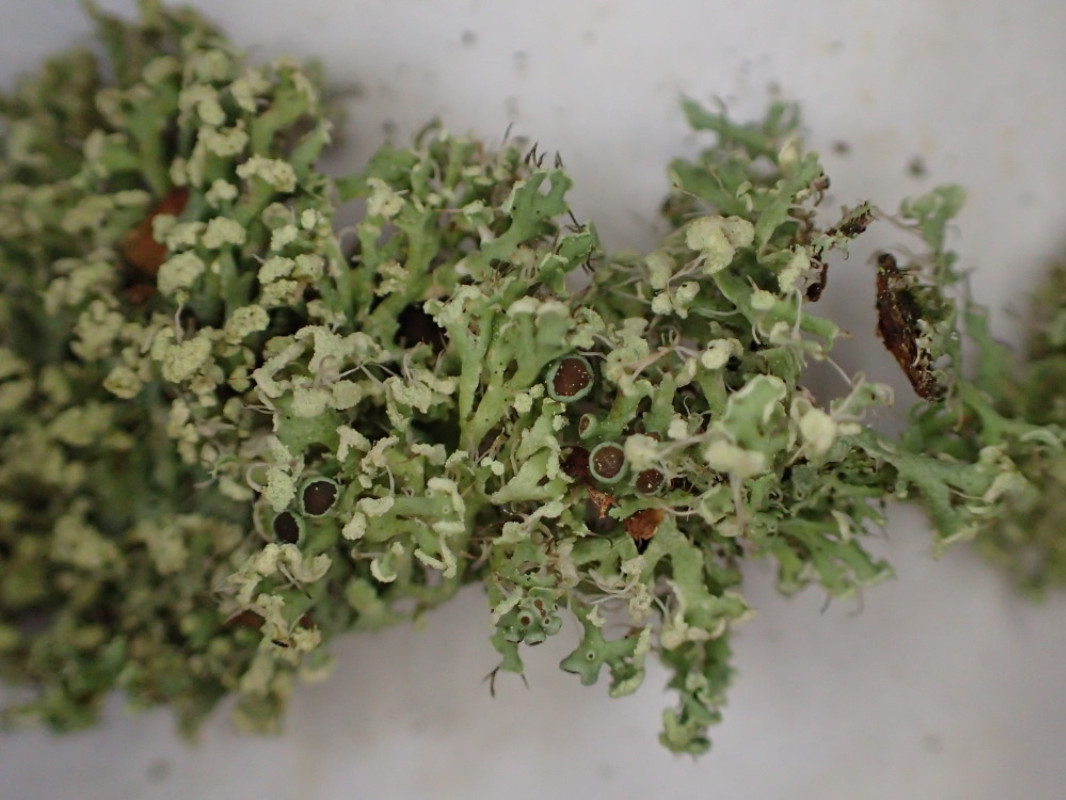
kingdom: Fungi
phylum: Ascomycota
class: Lecanoromycetes
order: Caliciales
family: Physciaceae
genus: Physcia
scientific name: Physcia tenella
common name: spæd rosetlav
